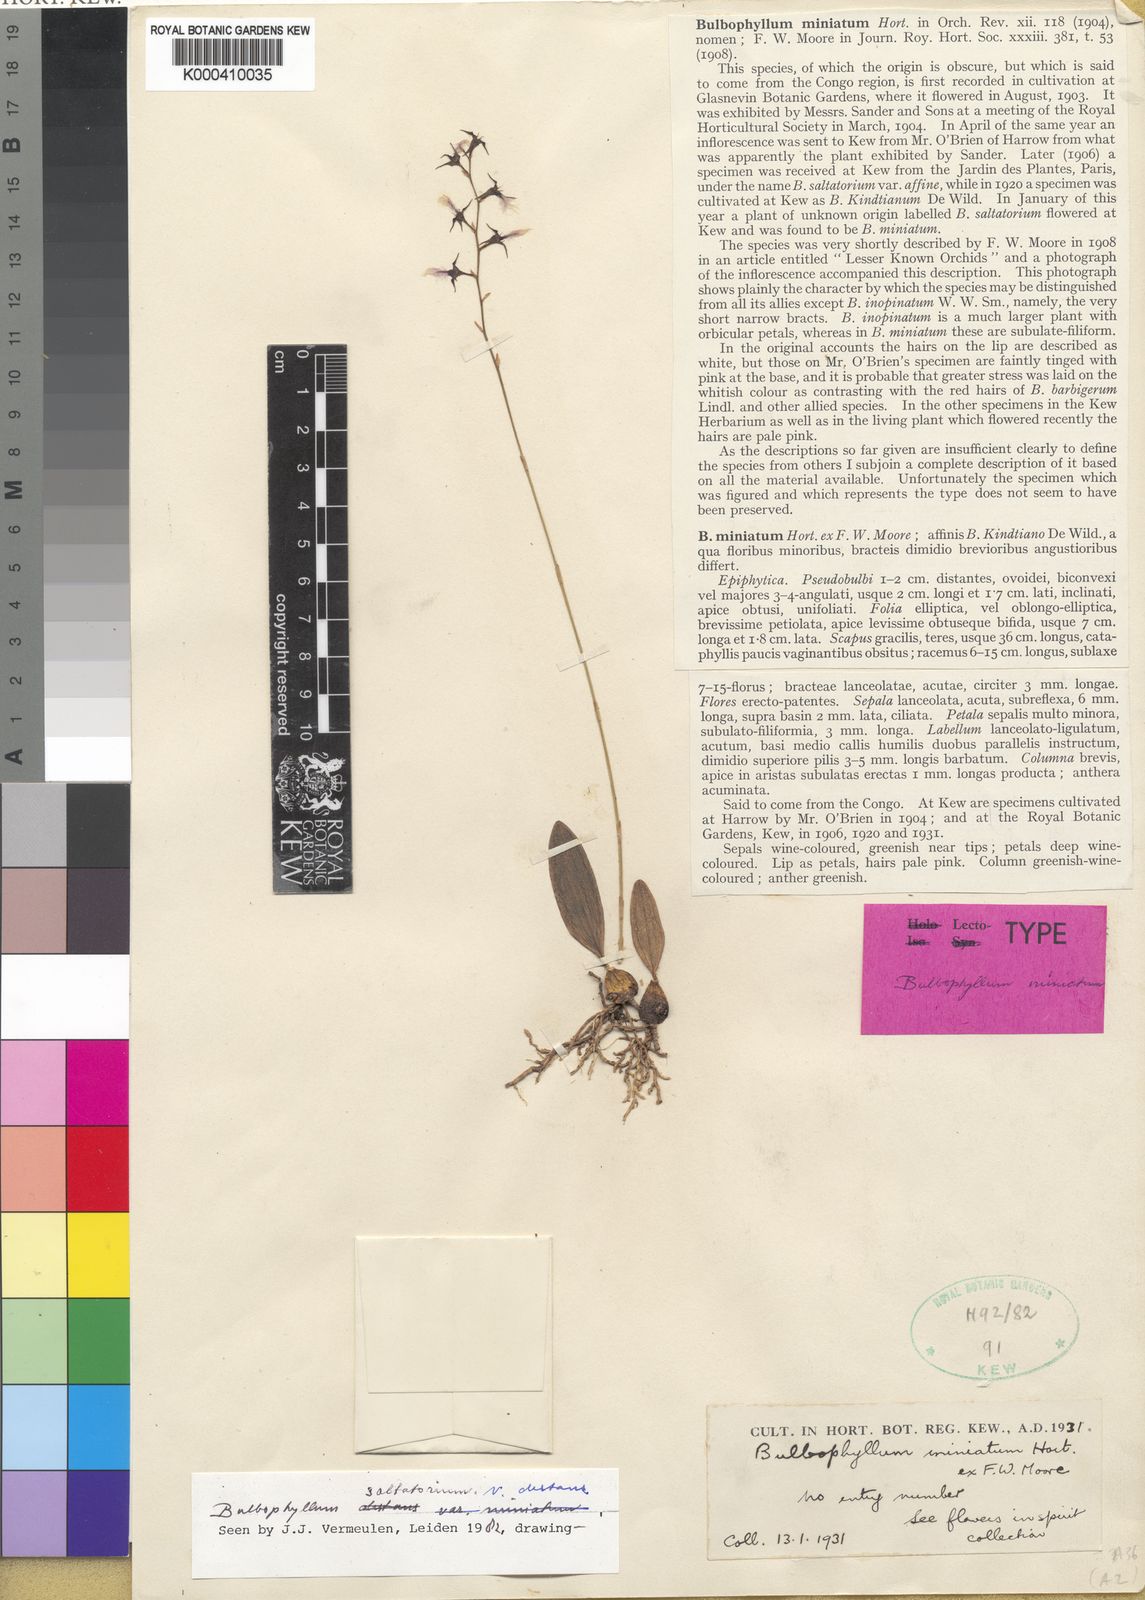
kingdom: Plantae
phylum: Tracheophyta
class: Liliopsida
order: Asparagales
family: Orchidaceae
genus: Bulbophyllum
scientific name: Bulbophyllum saltatorium
